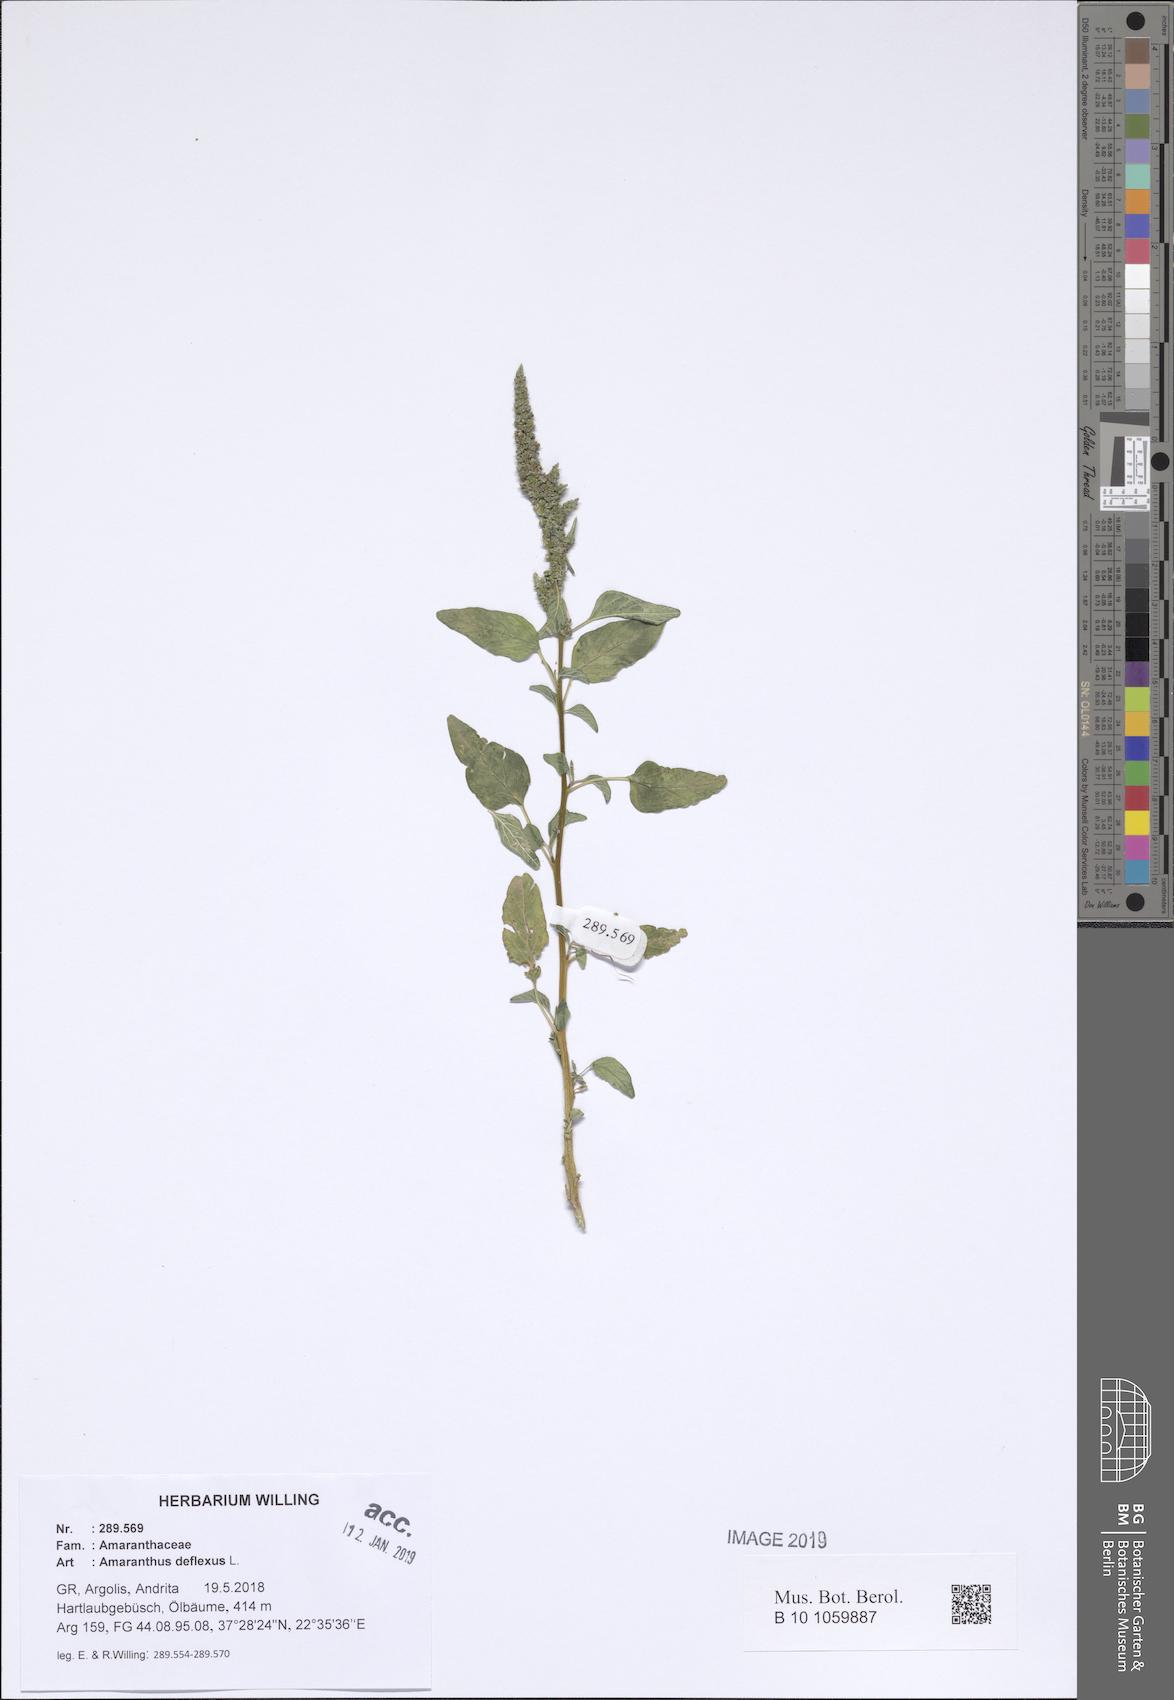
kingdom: Plantae
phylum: Tracheophyta
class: Magnoliopsida
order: Caryophyllales
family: Amaranthaceae
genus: Amaranthus
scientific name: Amaranthus deflexus
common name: Perennial pigweed
